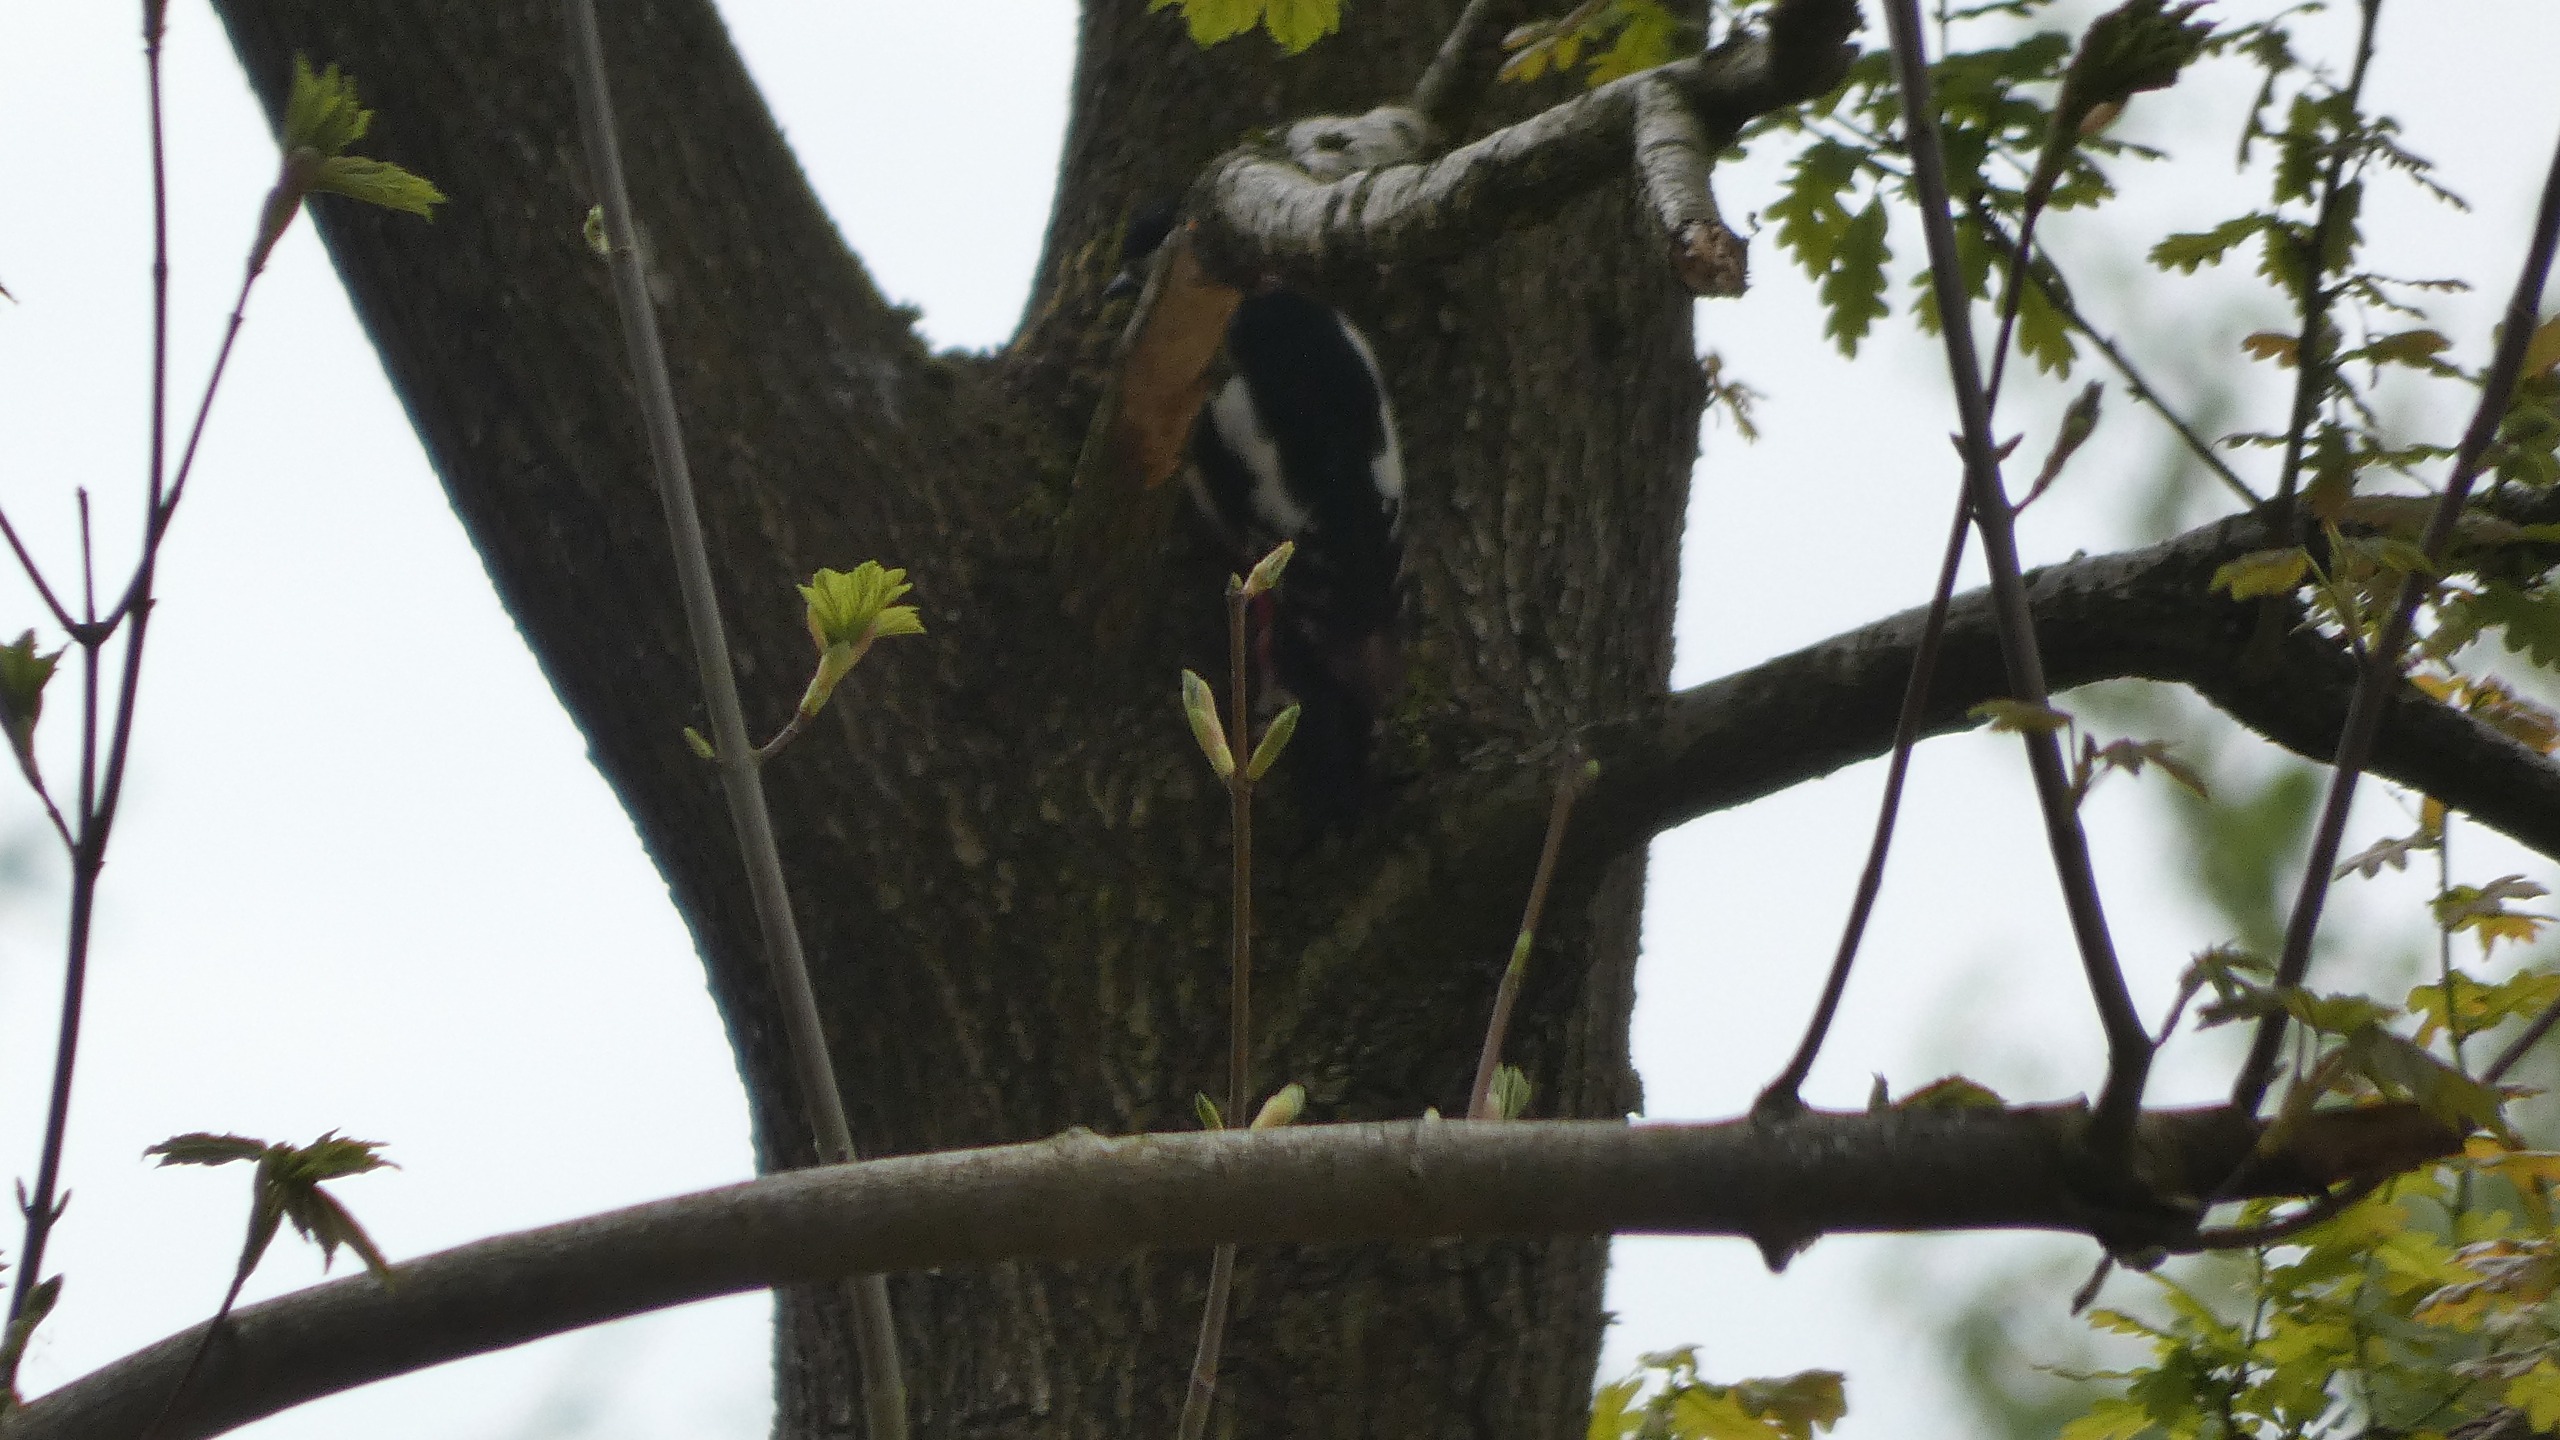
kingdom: Animalia
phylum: Chordata
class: Aves
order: Piciformes
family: Picidae
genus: Dendrocopos
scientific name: Dendrocopos major
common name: Stor flagspætte
